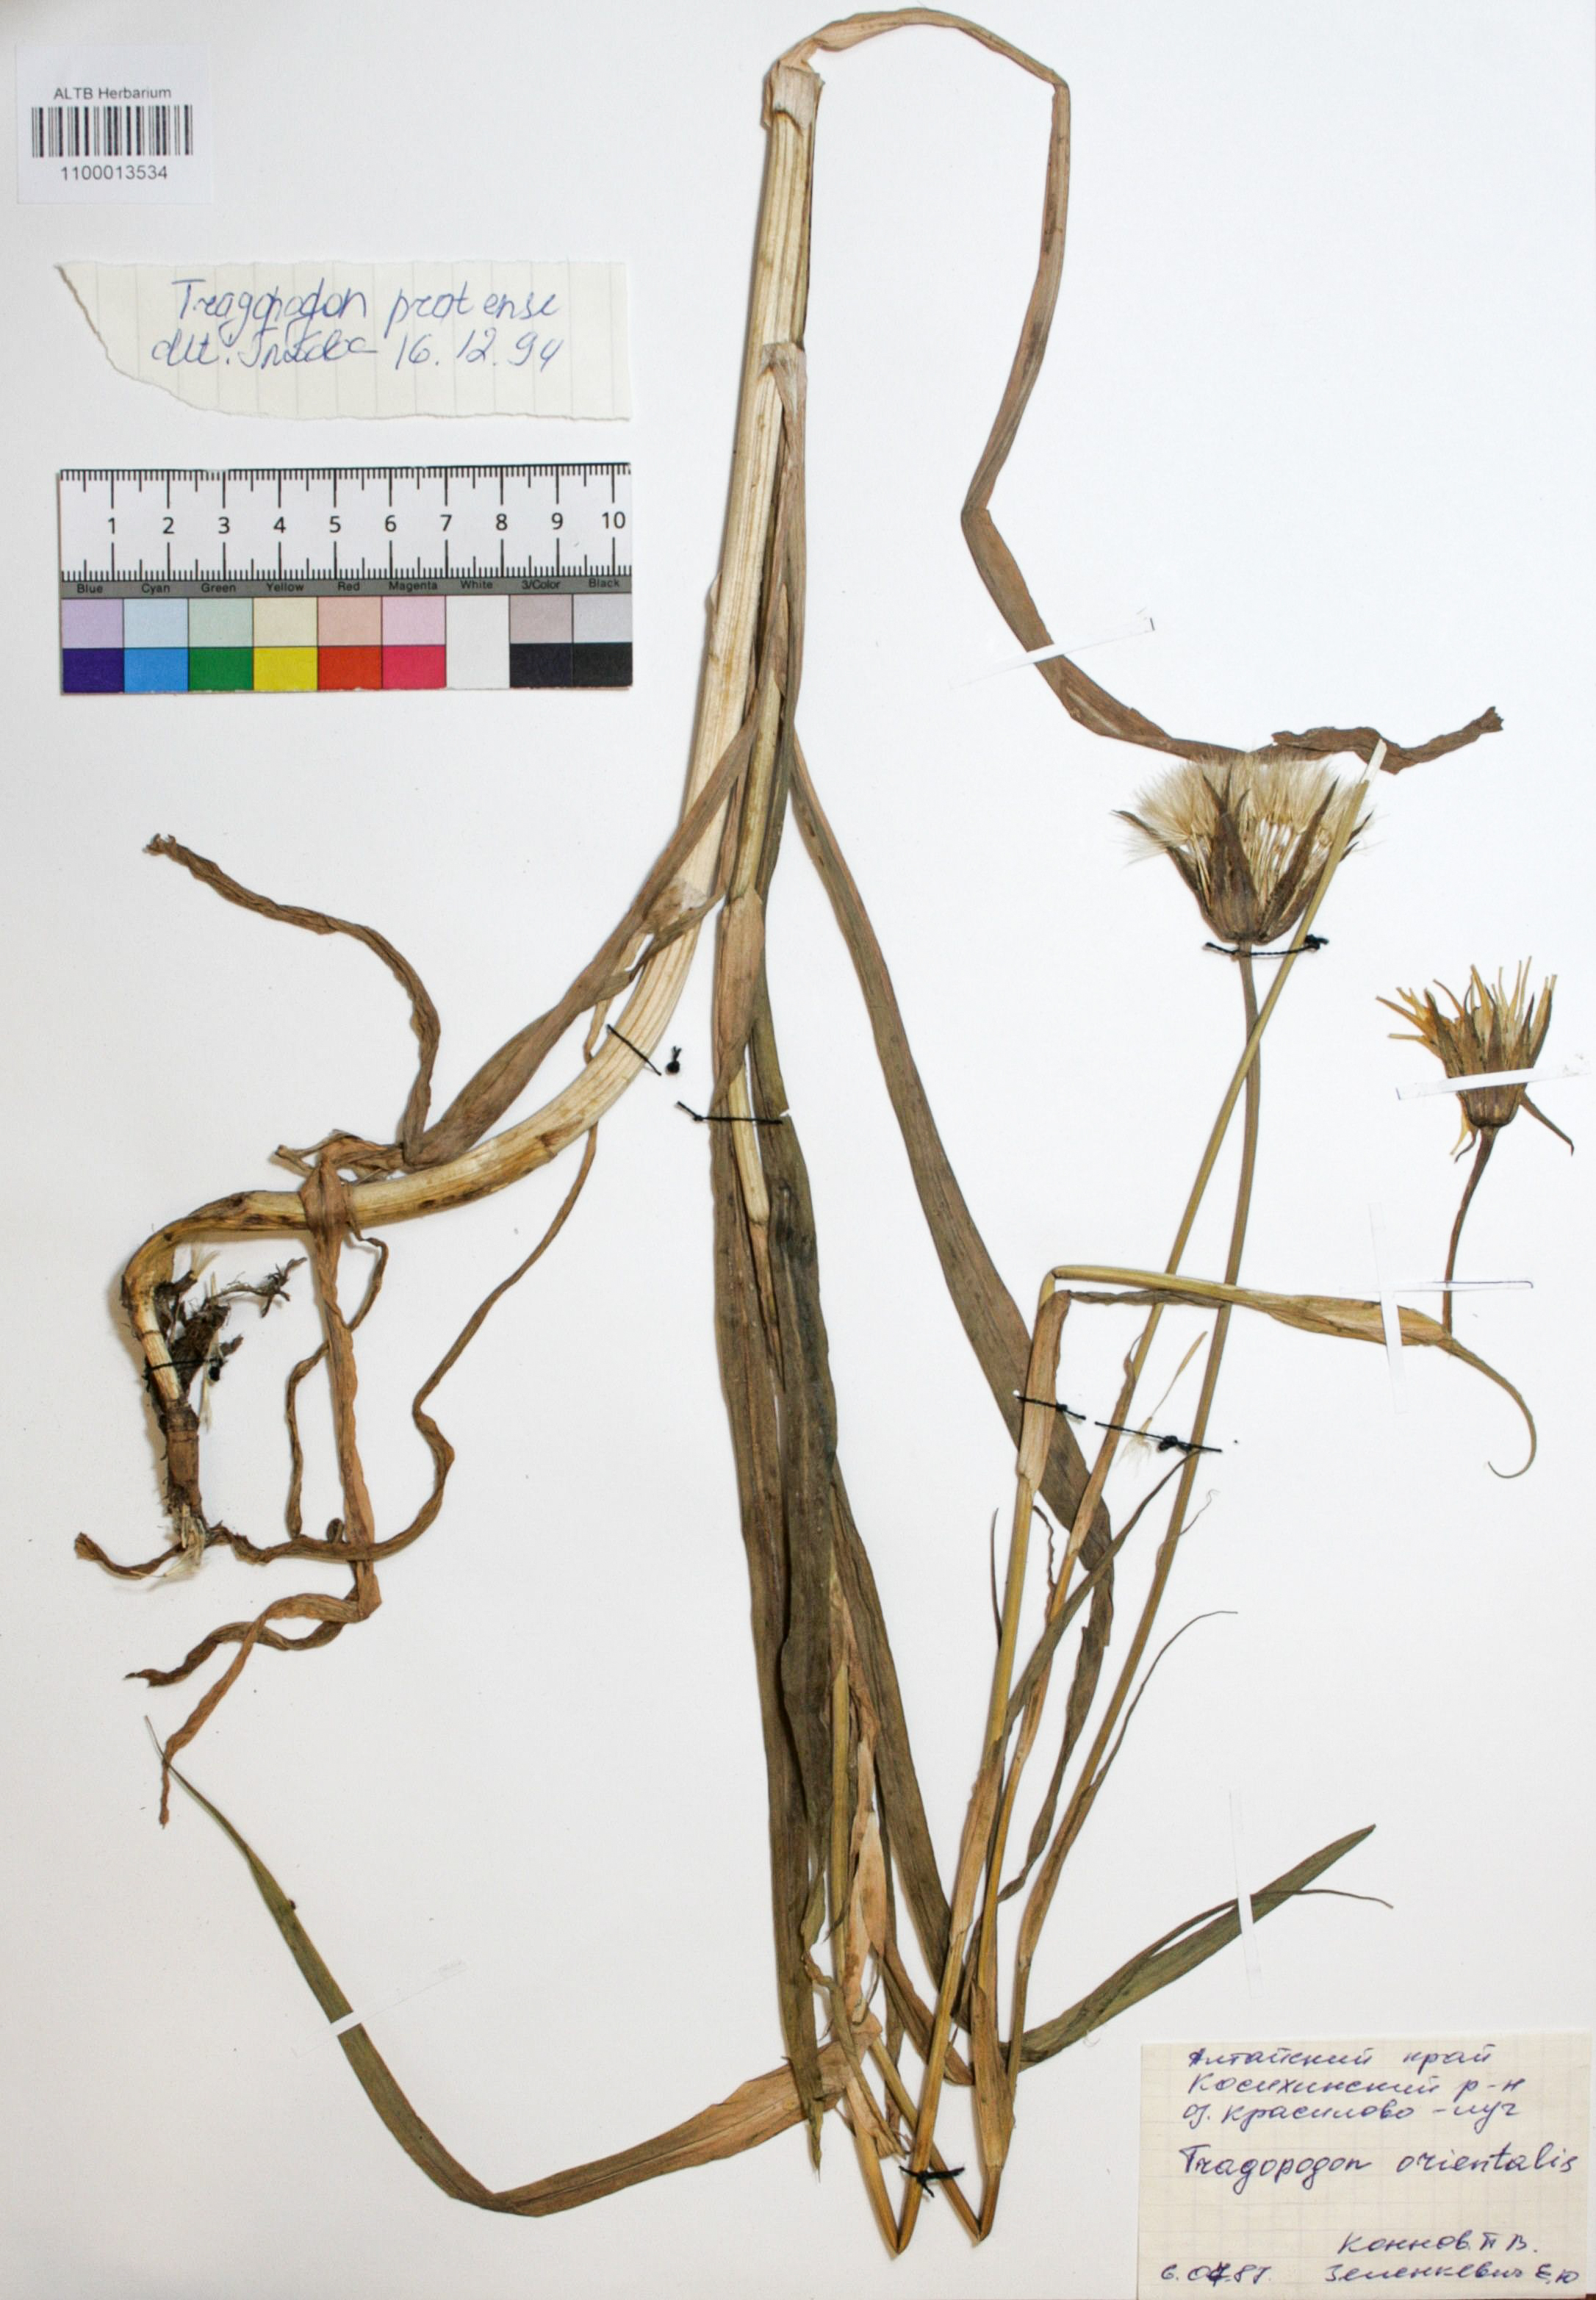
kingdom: Plantae
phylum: Tracheophyta
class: Magnoliopsida
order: Asterales
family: Asteraceae
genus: Tragopogon
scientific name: Tragopogon orientalis
